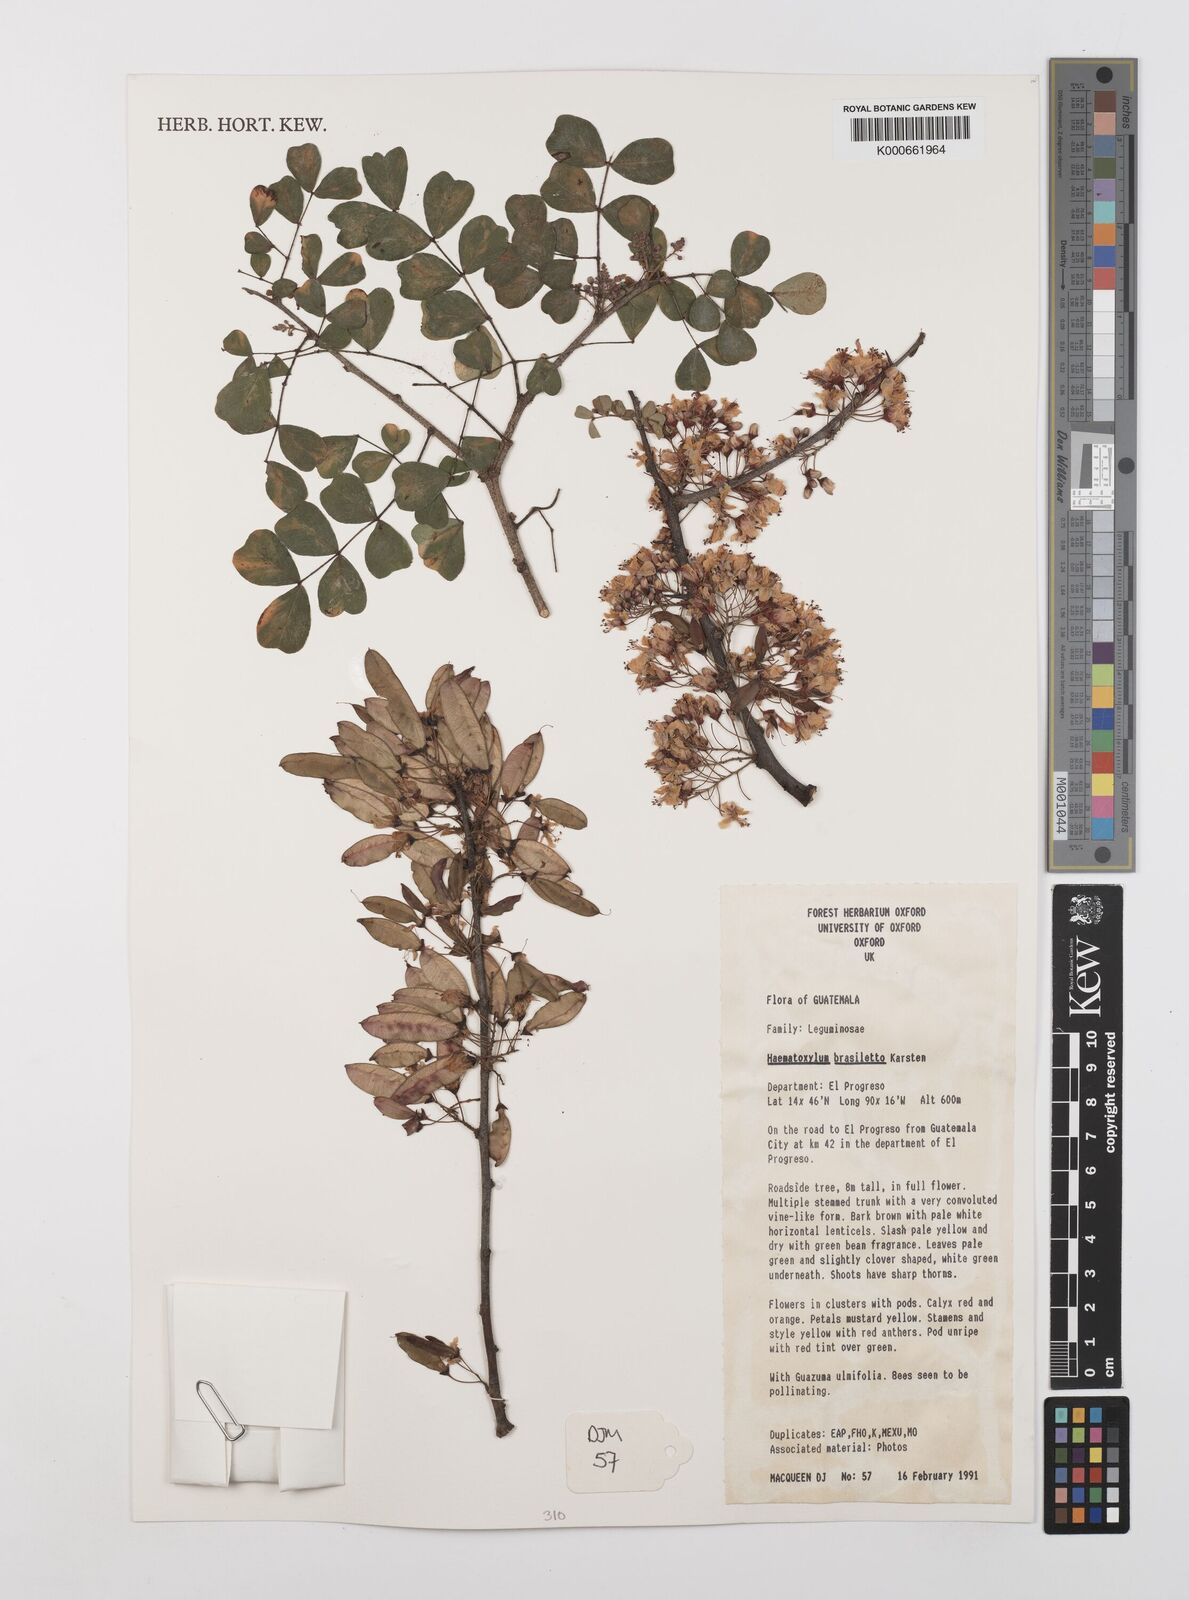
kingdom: Plantae
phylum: Tracheophyta
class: Magnoliopsida
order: Fabales
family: Fabaceae
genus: Haematoxylum
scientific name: Haematoxylum brasiletto
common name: Peachwood
